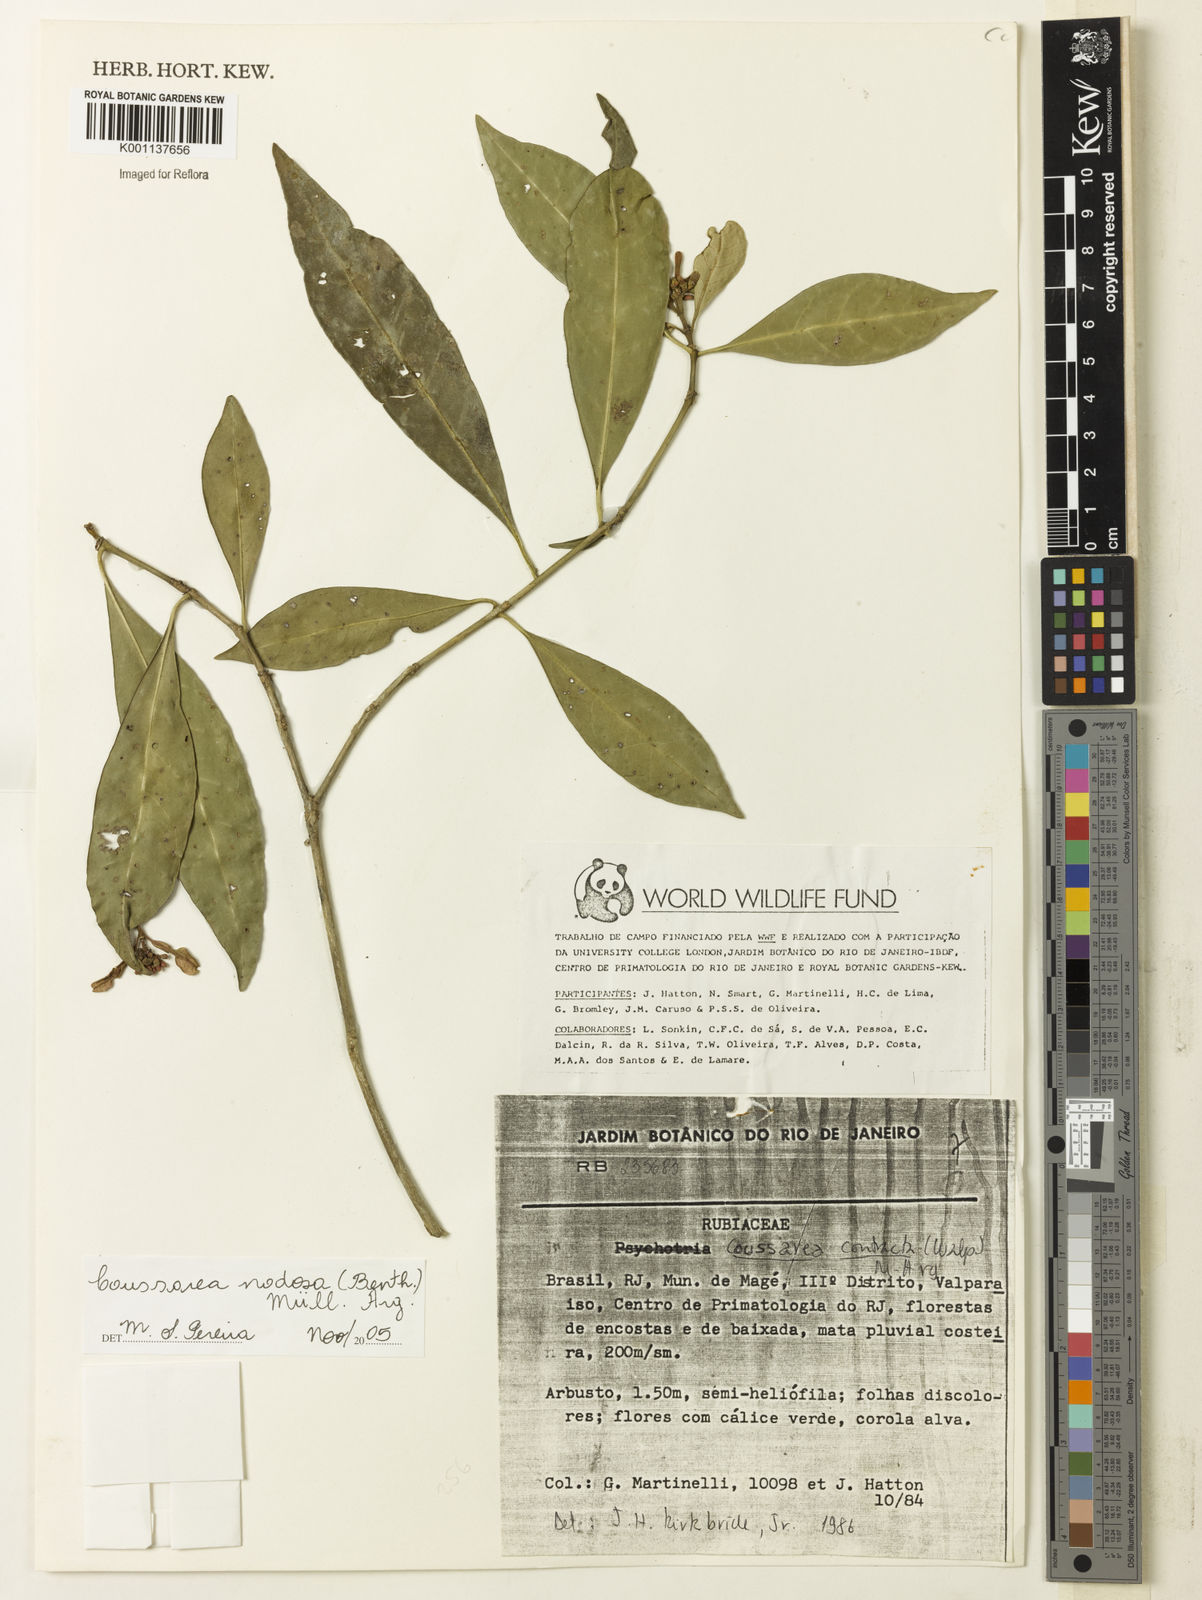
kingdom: Plantae
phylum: Tracheophyta
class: Magnoliopsida
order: Gentianales
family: Rubiaceae
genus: Coussarea
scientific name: Coussarea
